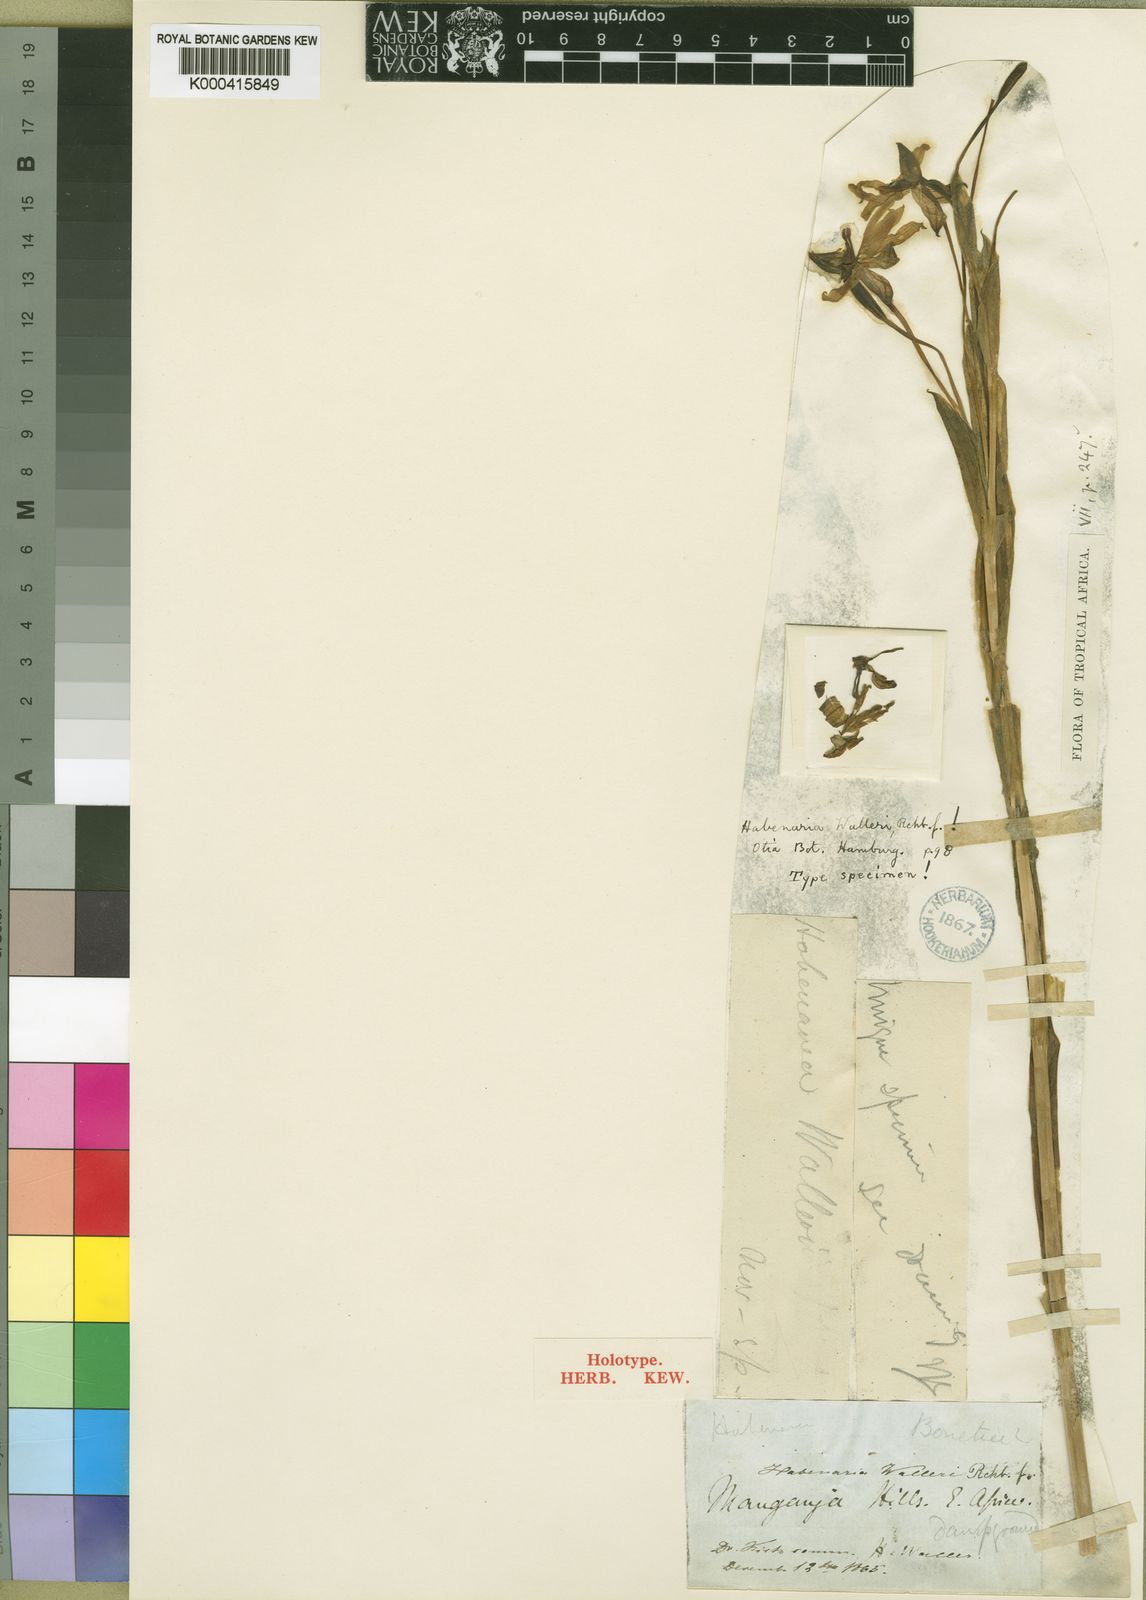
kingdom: Plantae
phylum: Tracheophyta
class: Liliopsida
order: Asparagales
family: Orchidaceae
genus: Habenaria
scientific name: Habenaria walleri
